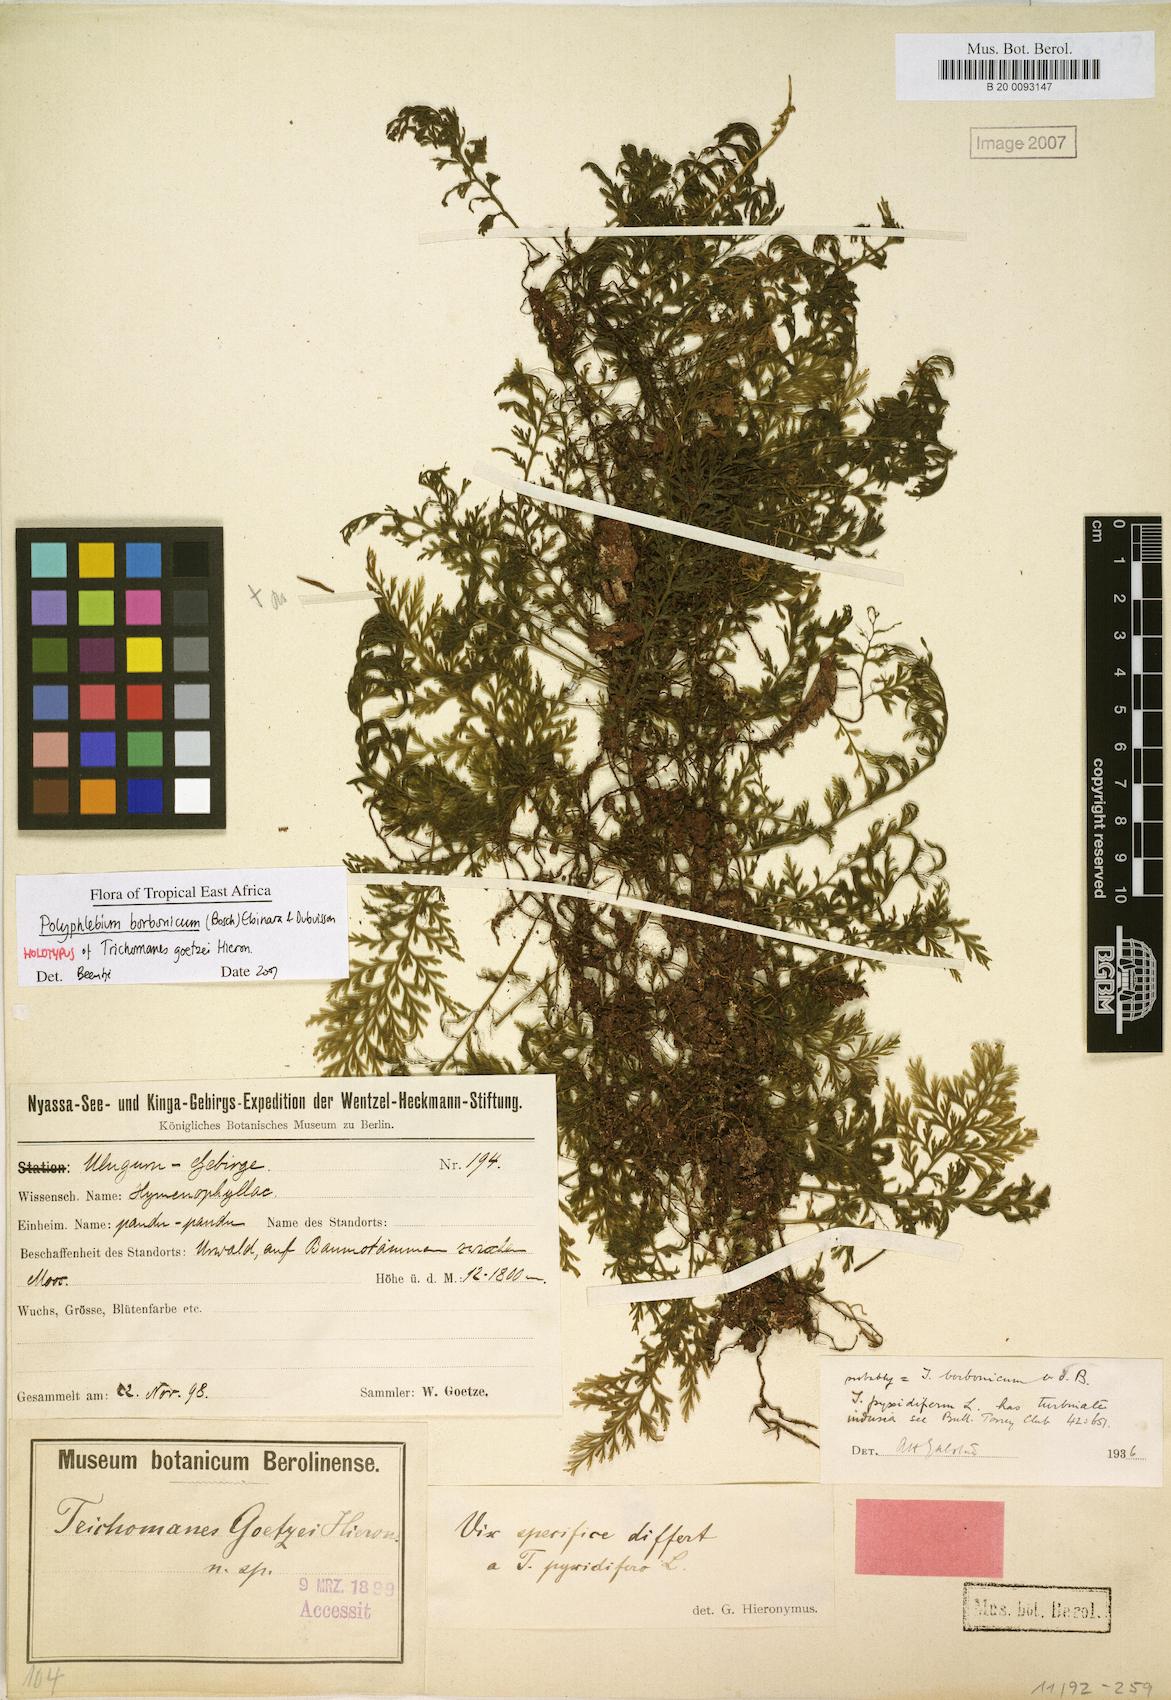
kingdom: Plantae
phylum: Tracheophyta
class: Polypodiopsida
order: Hymenophyllales
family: Hymenophyllaceae
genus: Polyphlebium
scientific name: Polyphlebium diaphanum
